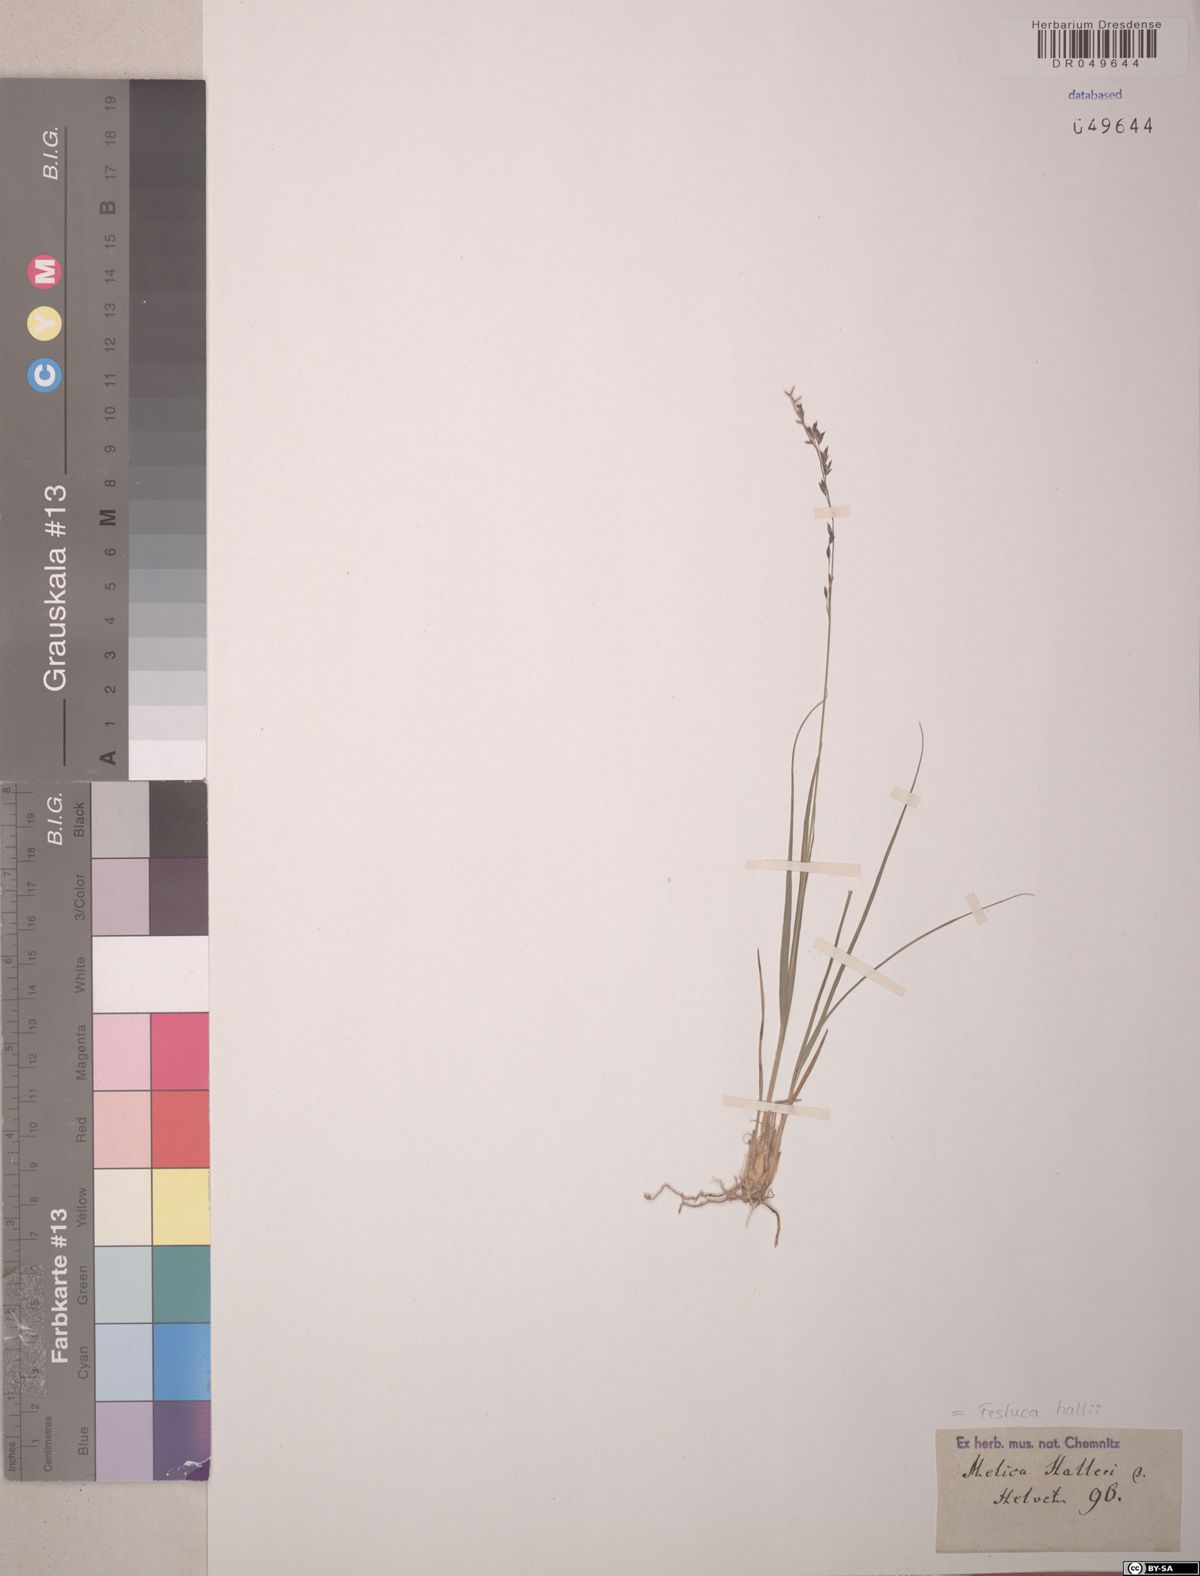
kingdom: Plantae
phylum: Tracheophyta
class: Liliopsida
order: Poales
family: Poaceae
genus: Festuca
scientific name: Festuca hallii
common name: Hall's fescue
